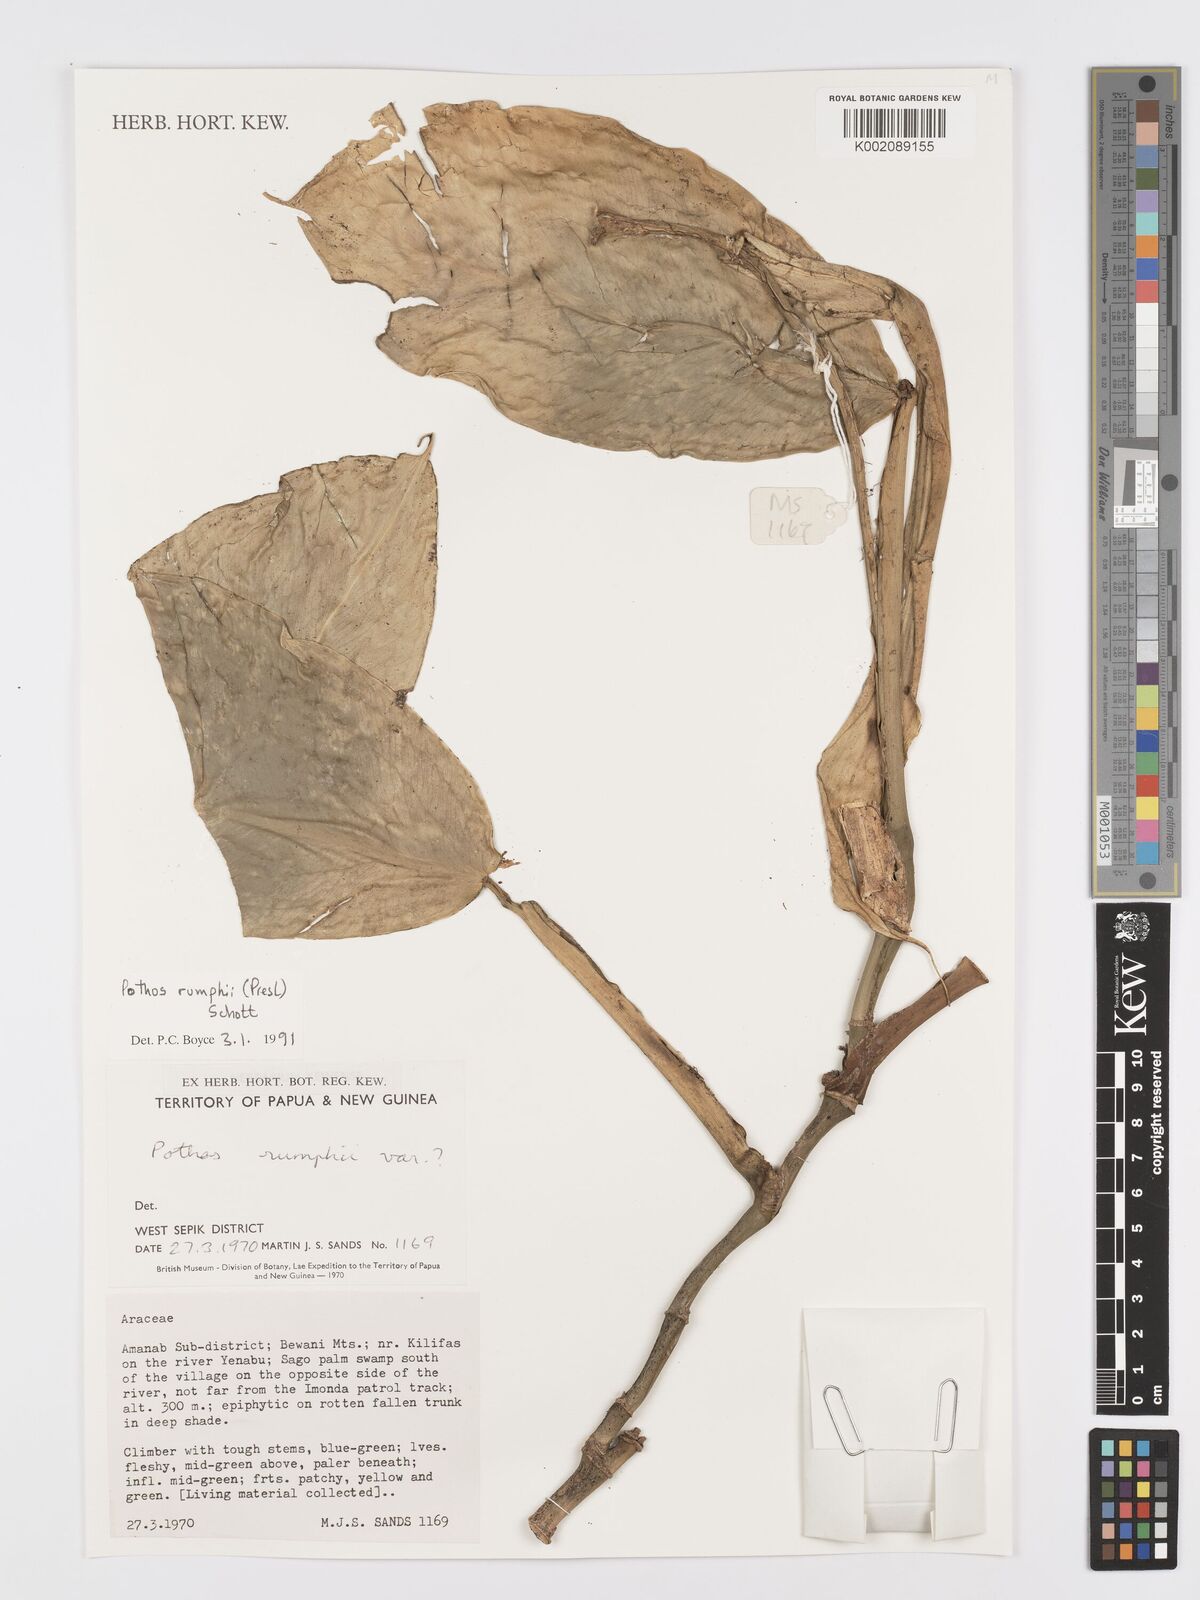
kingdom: Plantae
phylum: Tracheophyta
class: Liliopsida
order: Alismatales
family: Araceae
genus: Pothos
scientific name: Pothos tener
